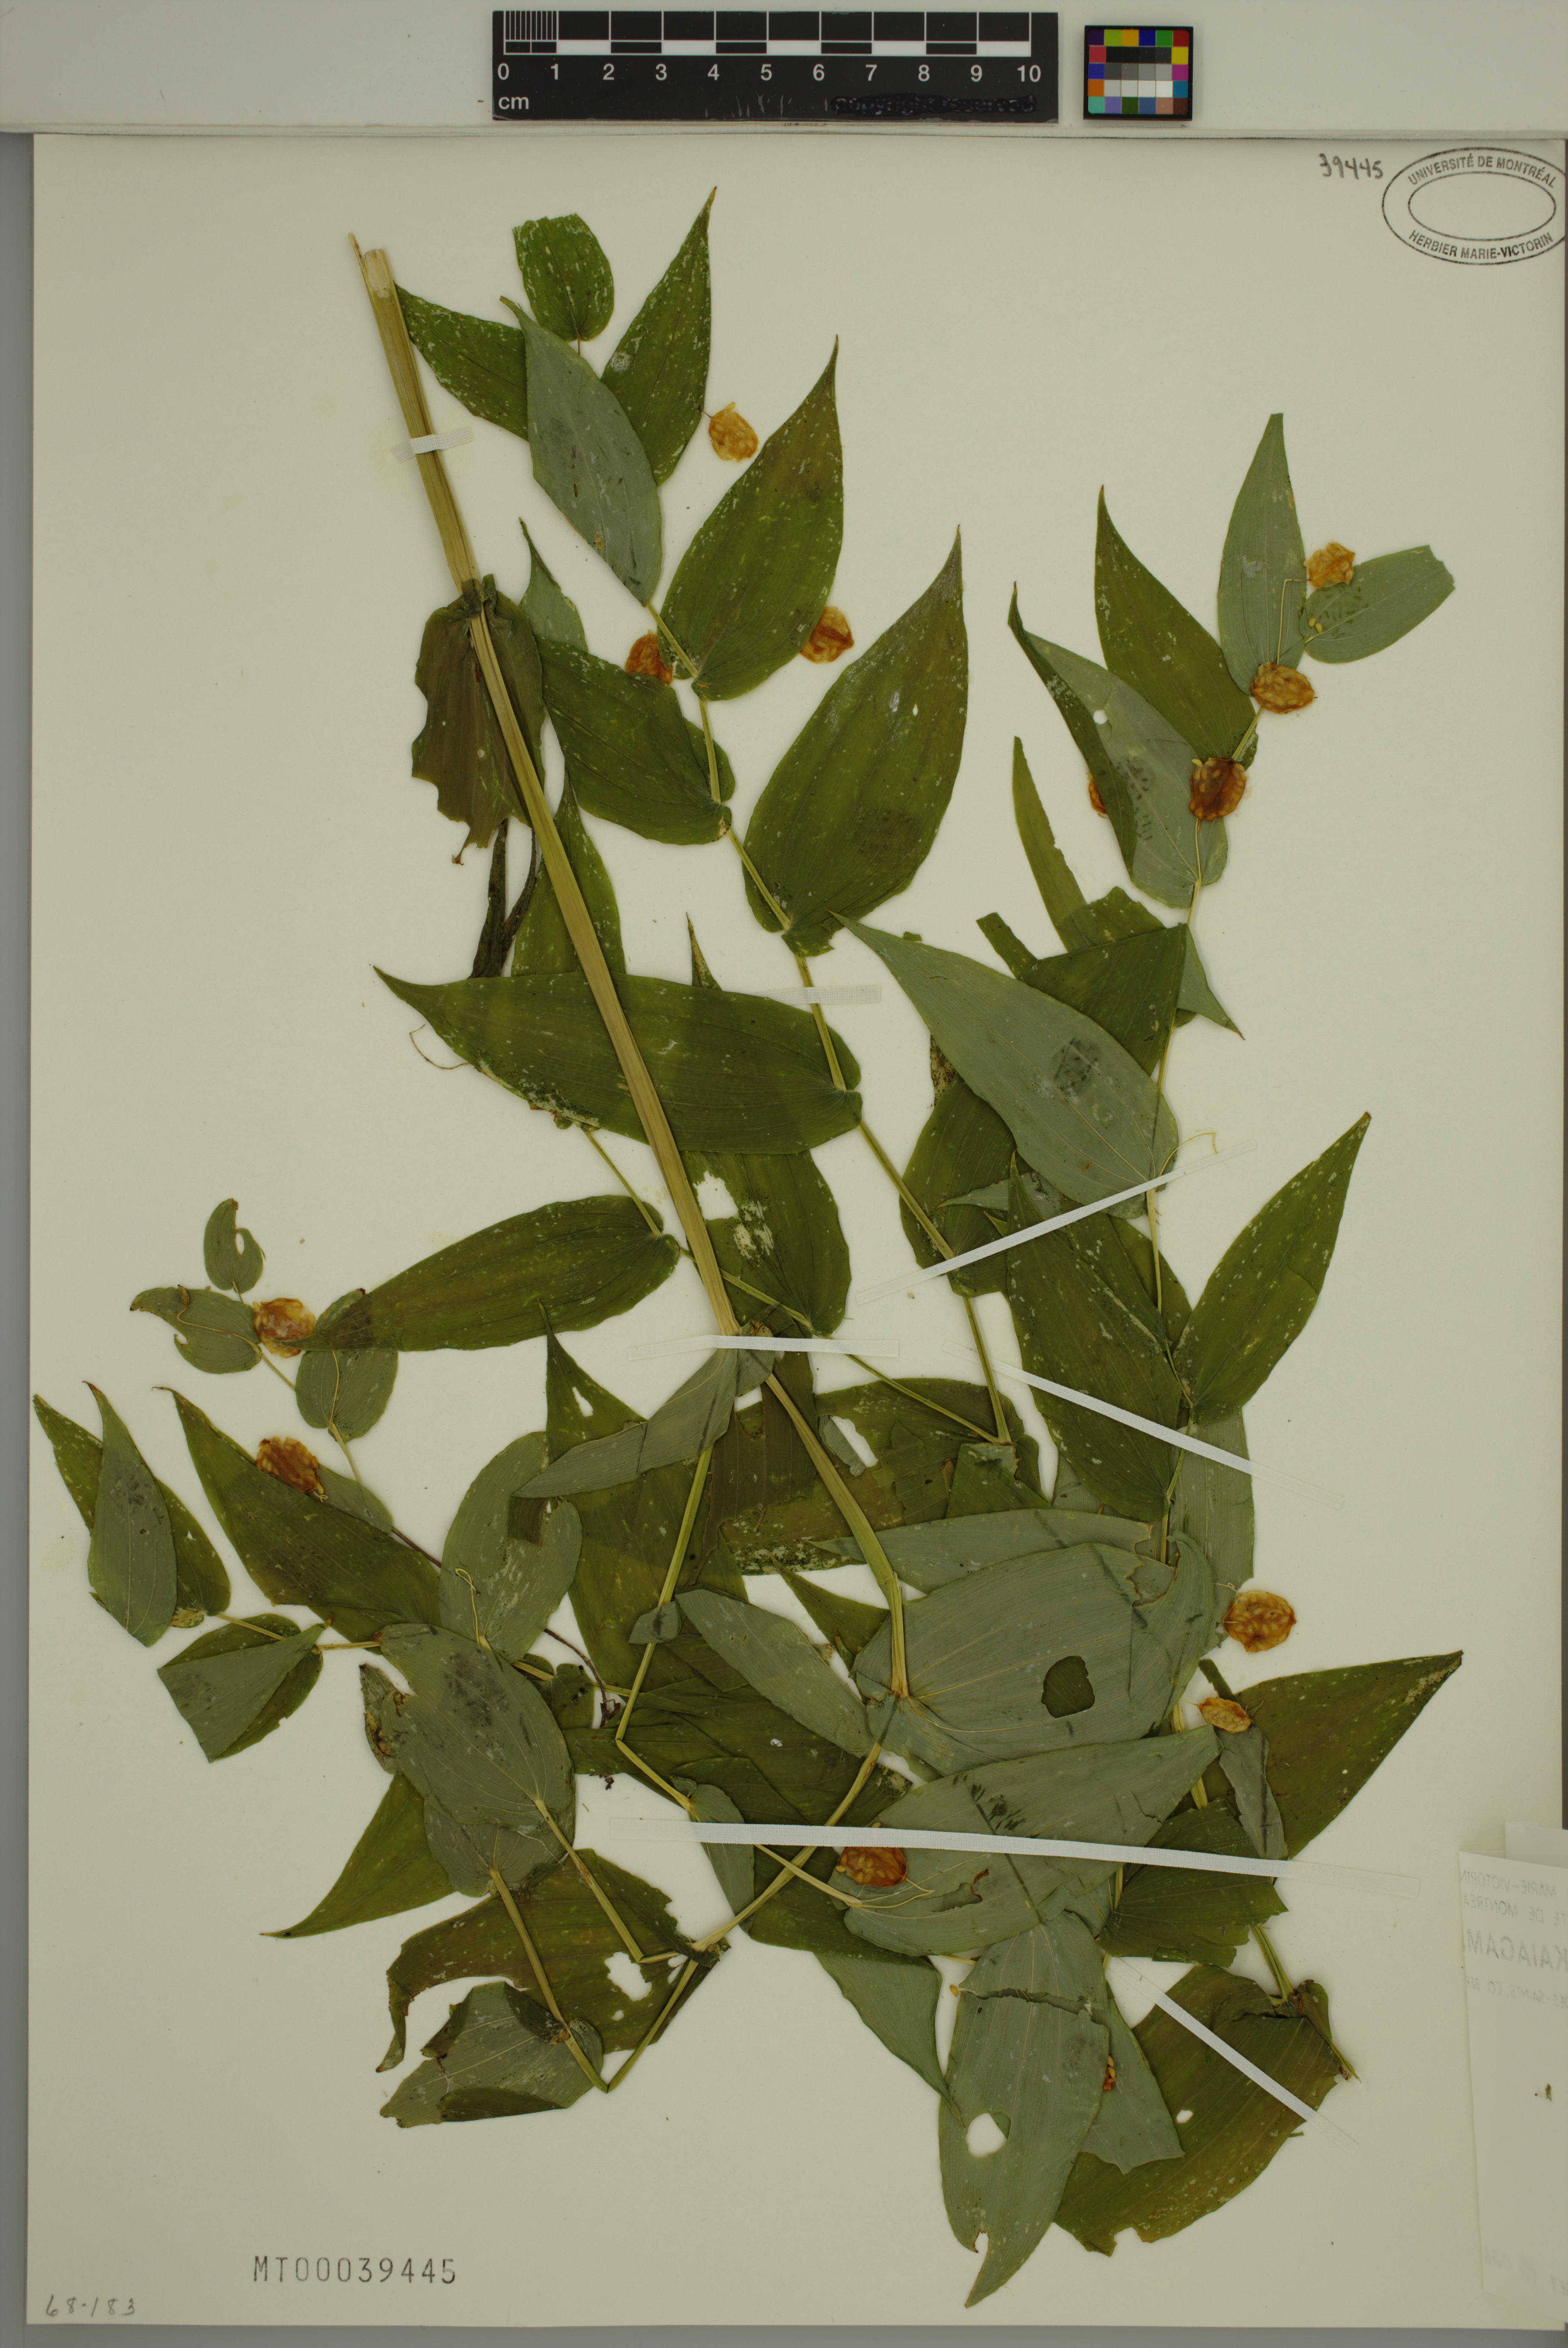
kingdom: Plantae
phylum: Tracheophyta
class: Liliopsida
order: Liliales
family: Liliaceae
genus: Streptopus
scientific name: Streptopus amplexifolius
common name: Clasp twisted stalk
